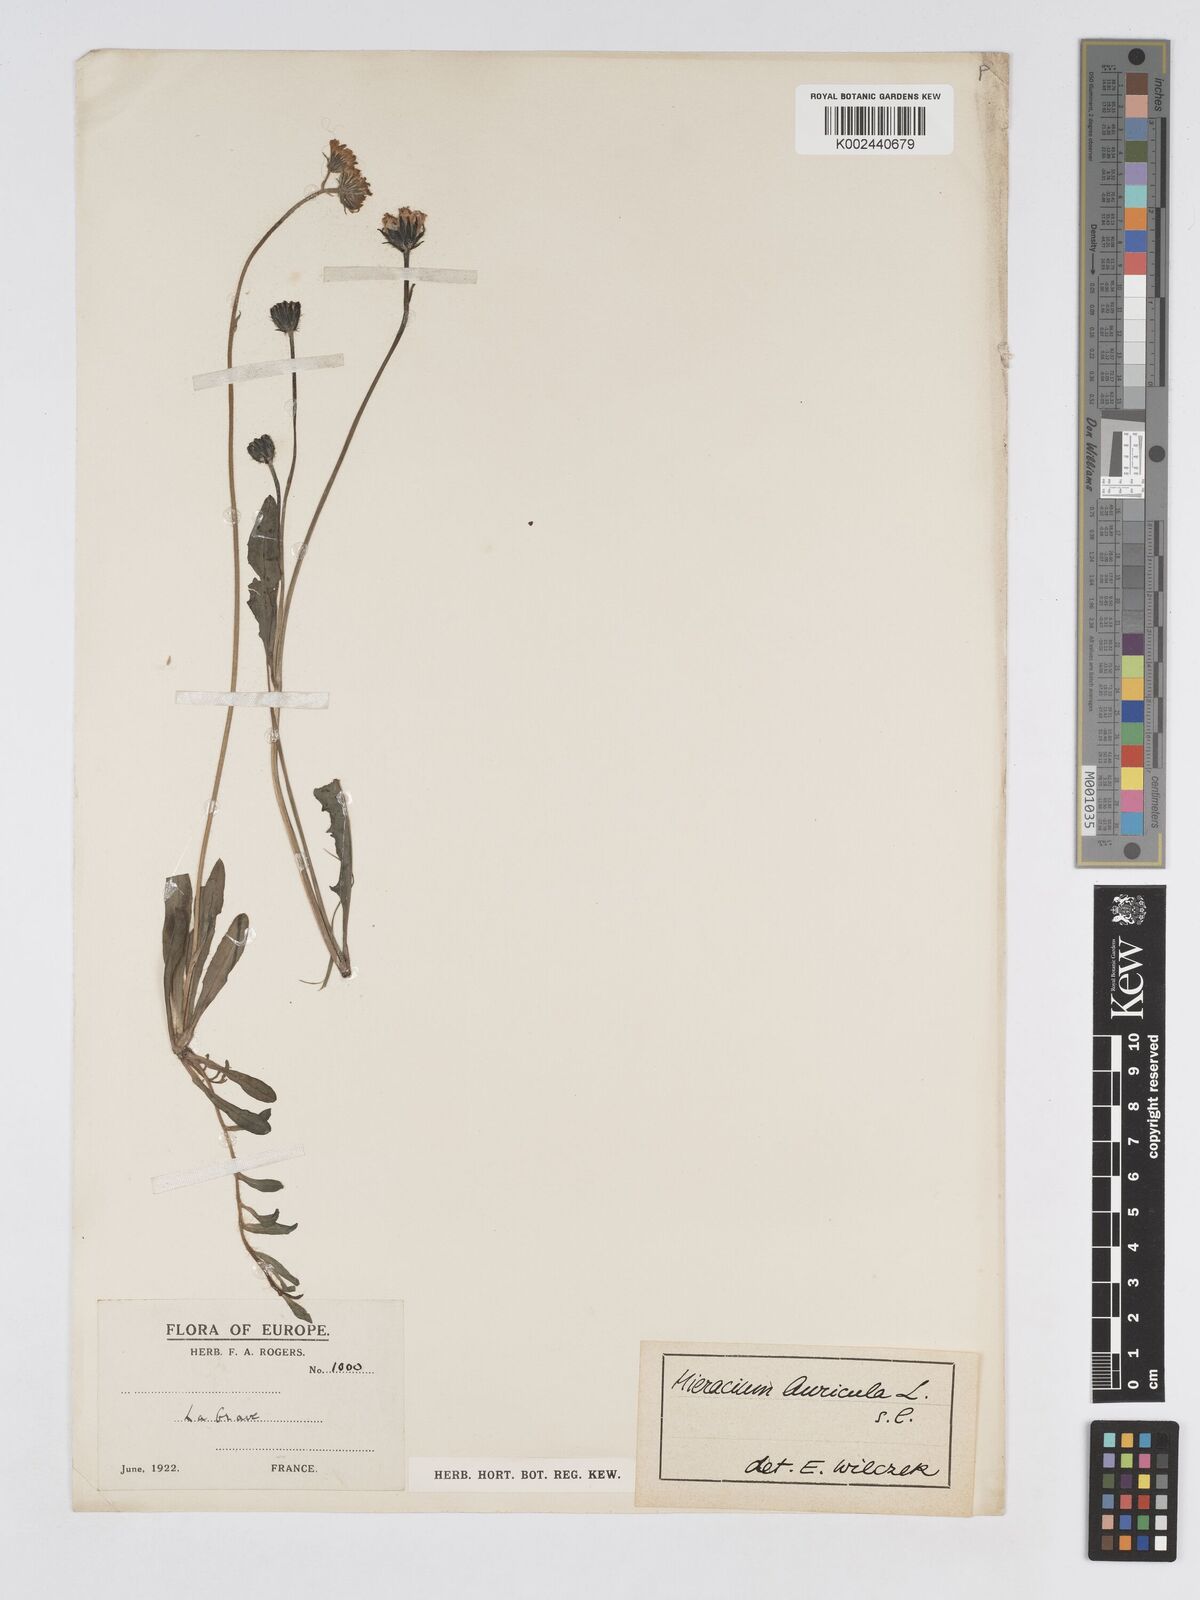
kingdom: Plantae
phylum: Tracheophyta
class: Magnoliopsida
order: Asterales
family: Asteraceae
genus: Pilosella
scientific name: Pilosella floribunda
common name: Glaucous hawkweed
